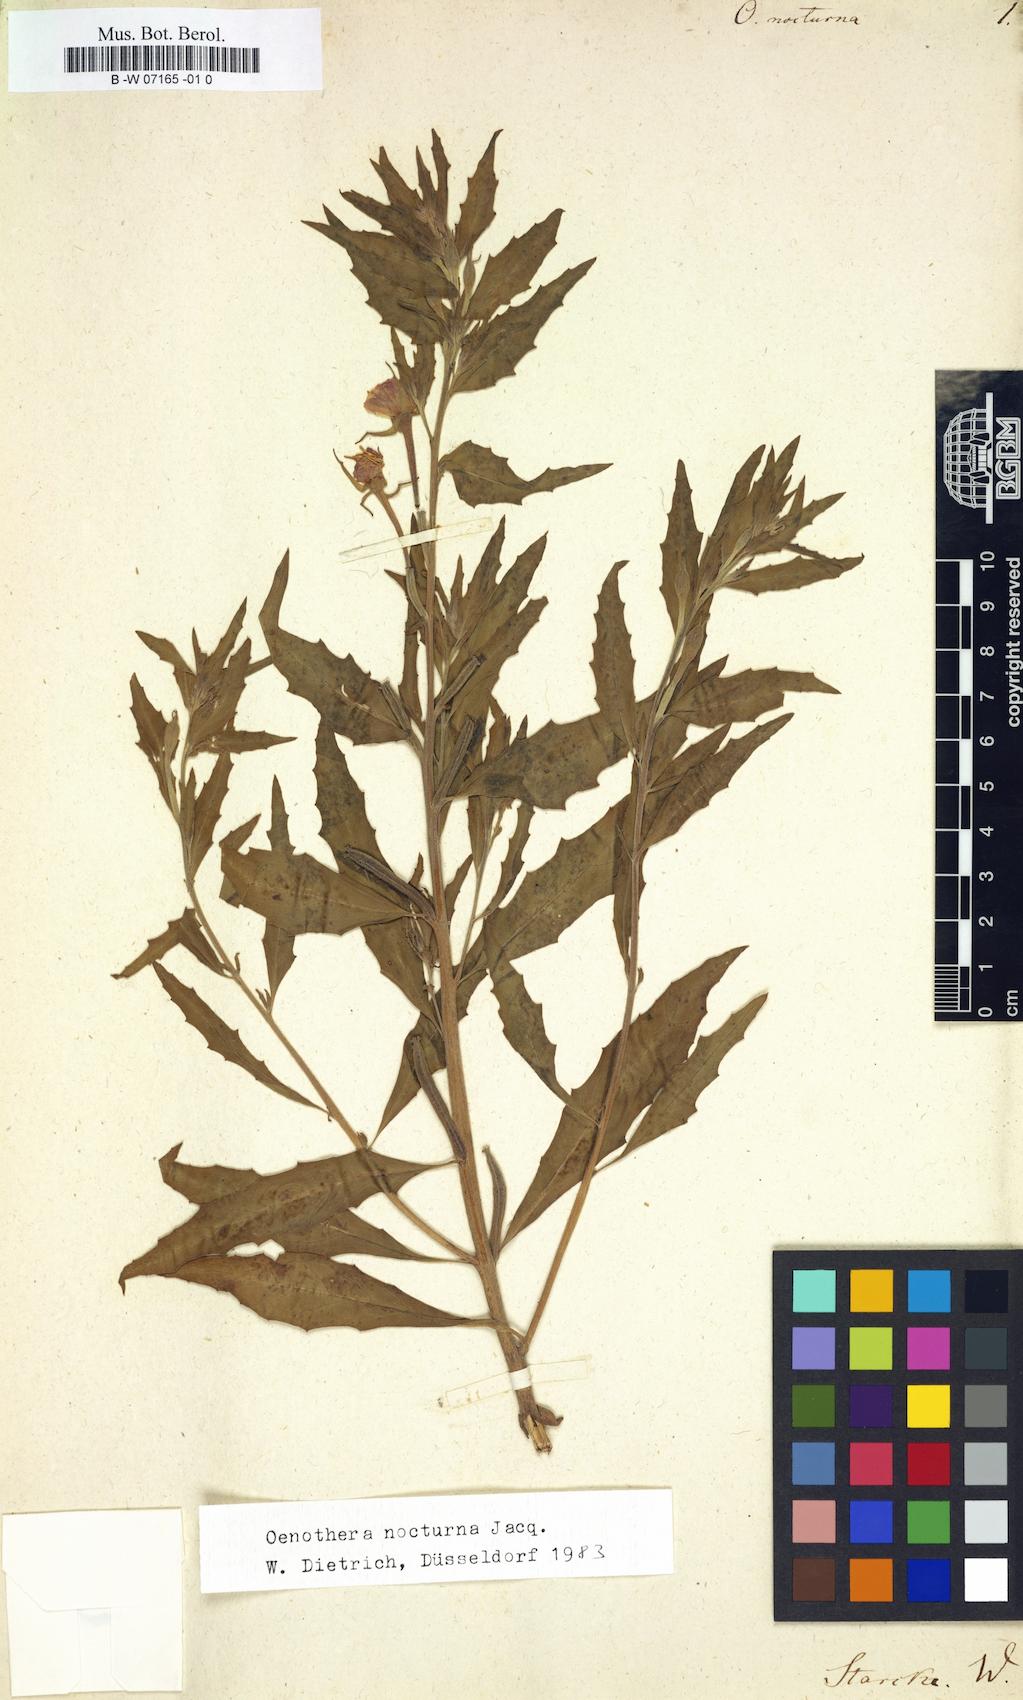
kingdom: Plantae
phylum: Tracheophyta
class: Magnoliopsida
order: Myrtales
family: Onagraceae
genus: Oenothera
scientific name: Oenothera nocturna
